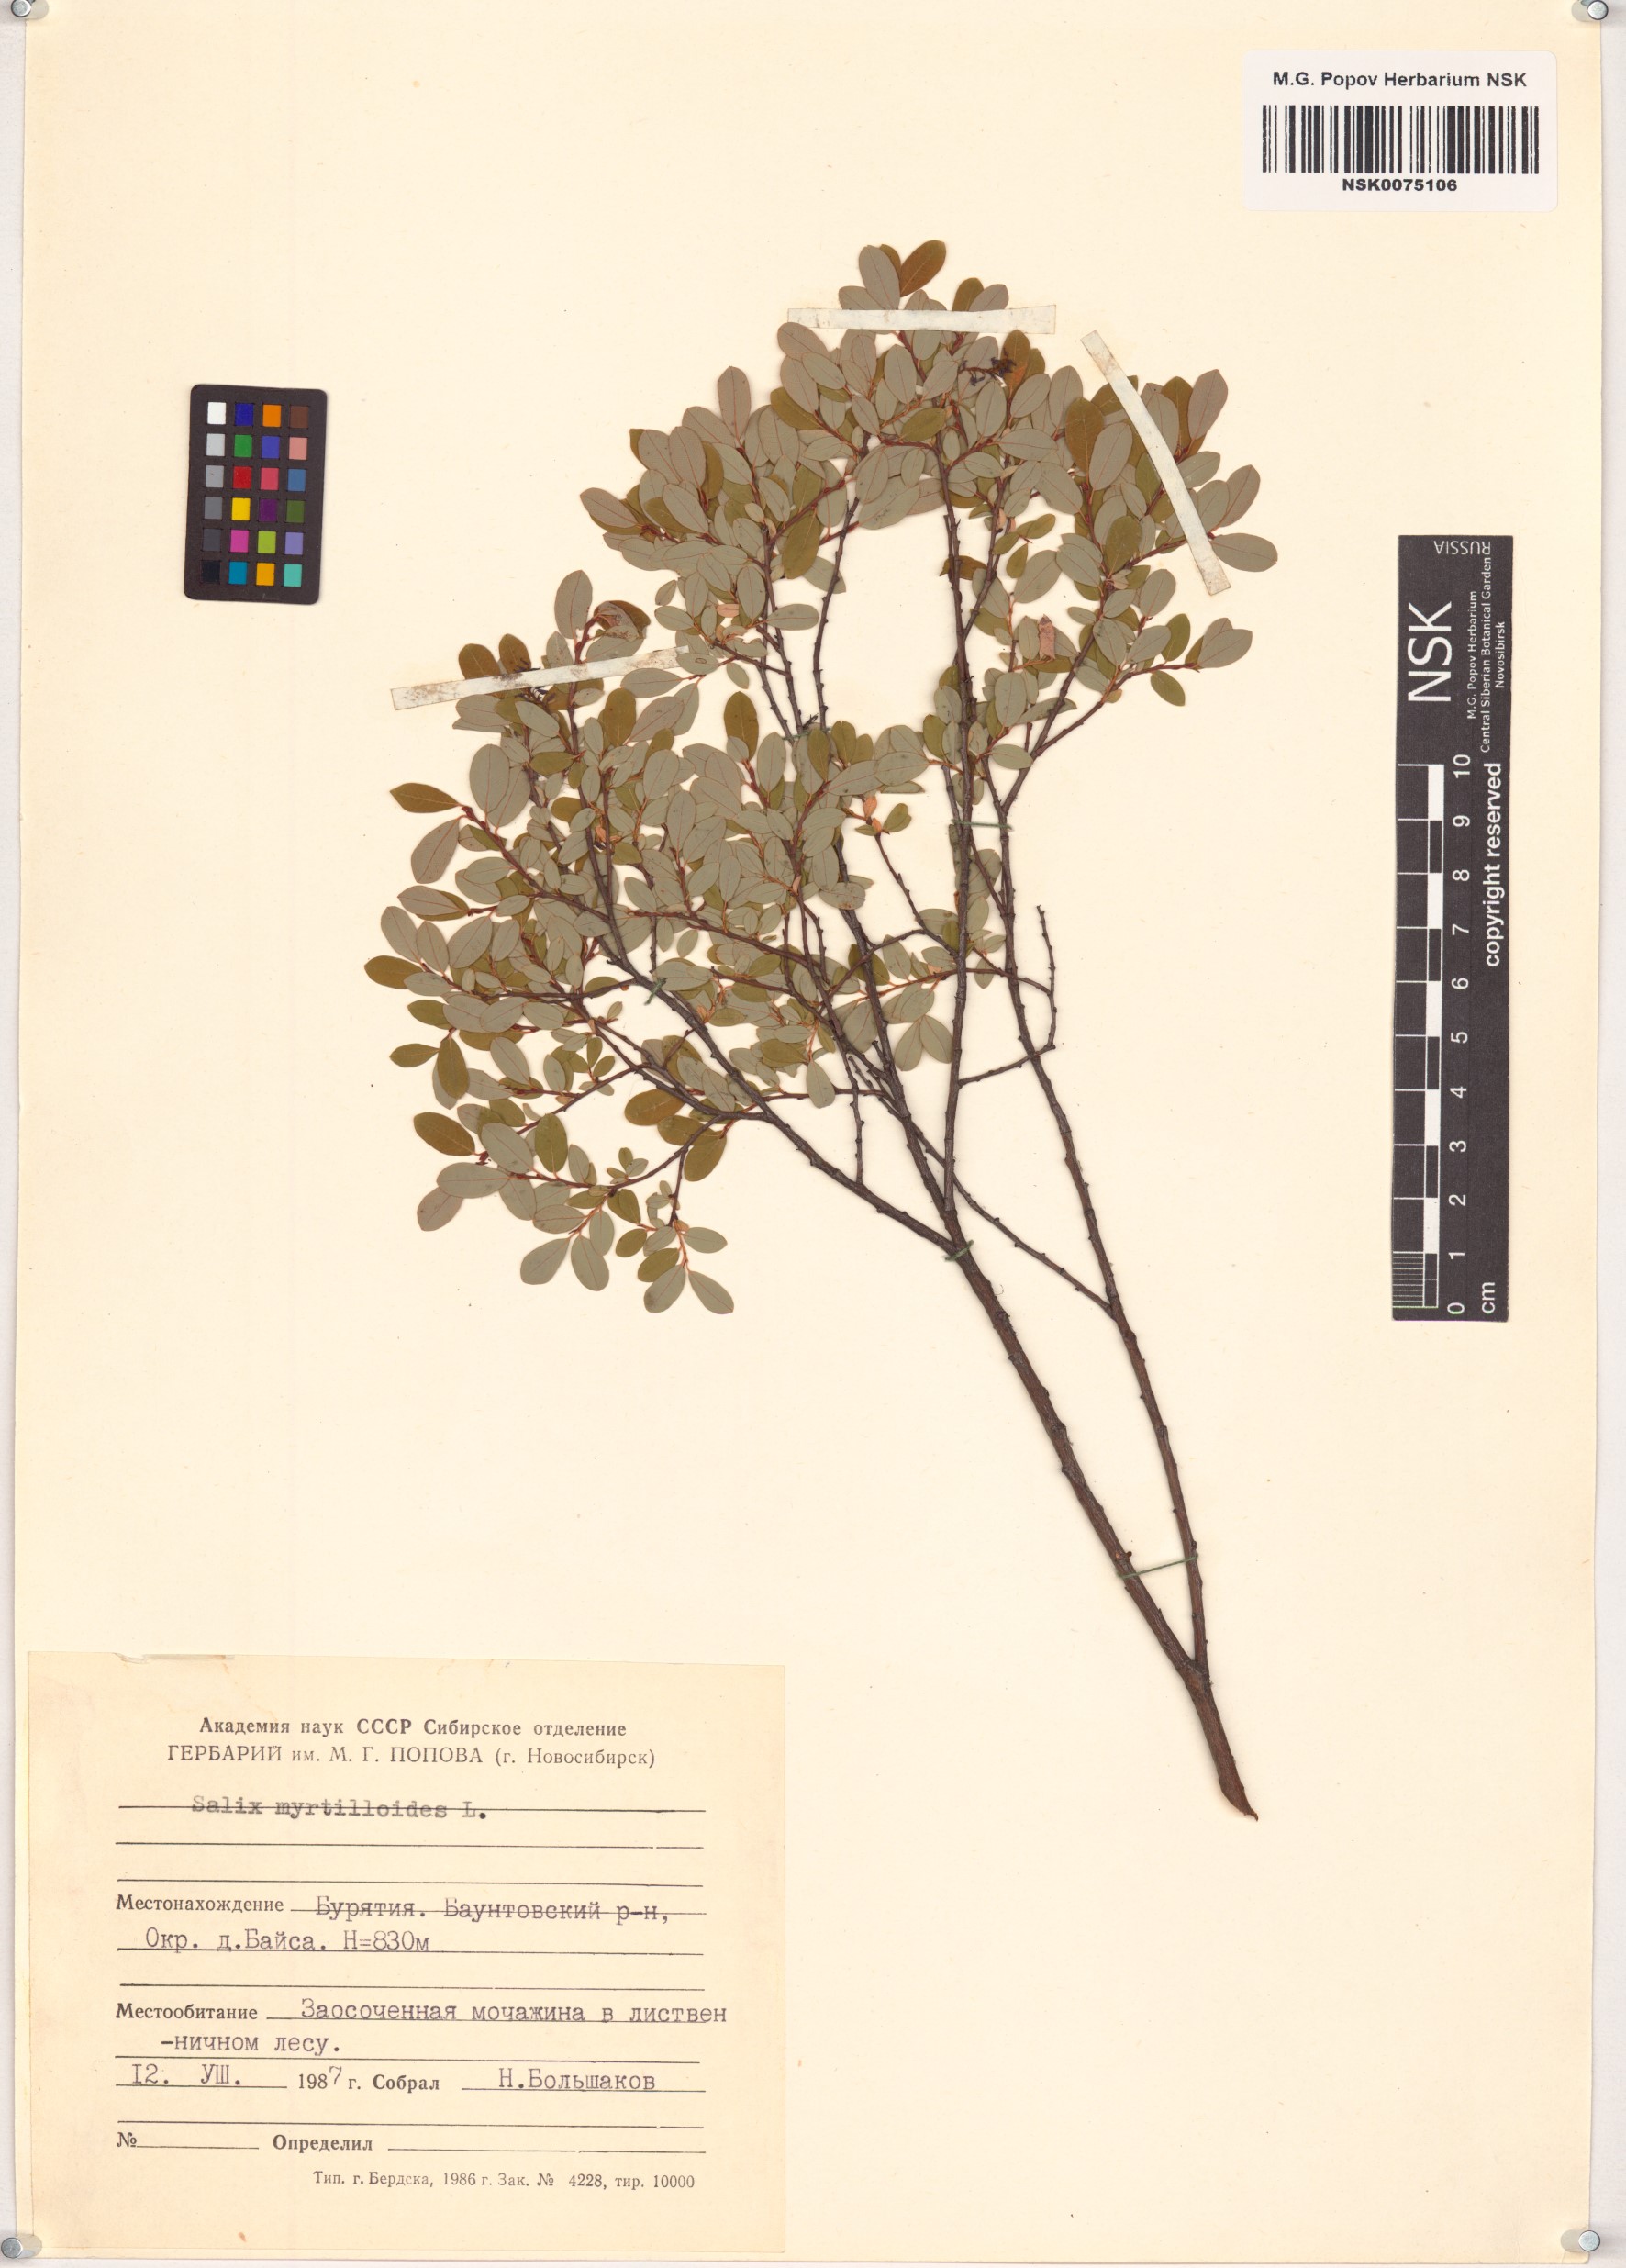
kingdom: Plantae
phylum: Tracheophyta
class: Magnoliopsida
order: Malpighiales
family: Salicaceae
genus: Salix
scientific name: Salix myrtilloides
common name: Myrtle-leaved willow
